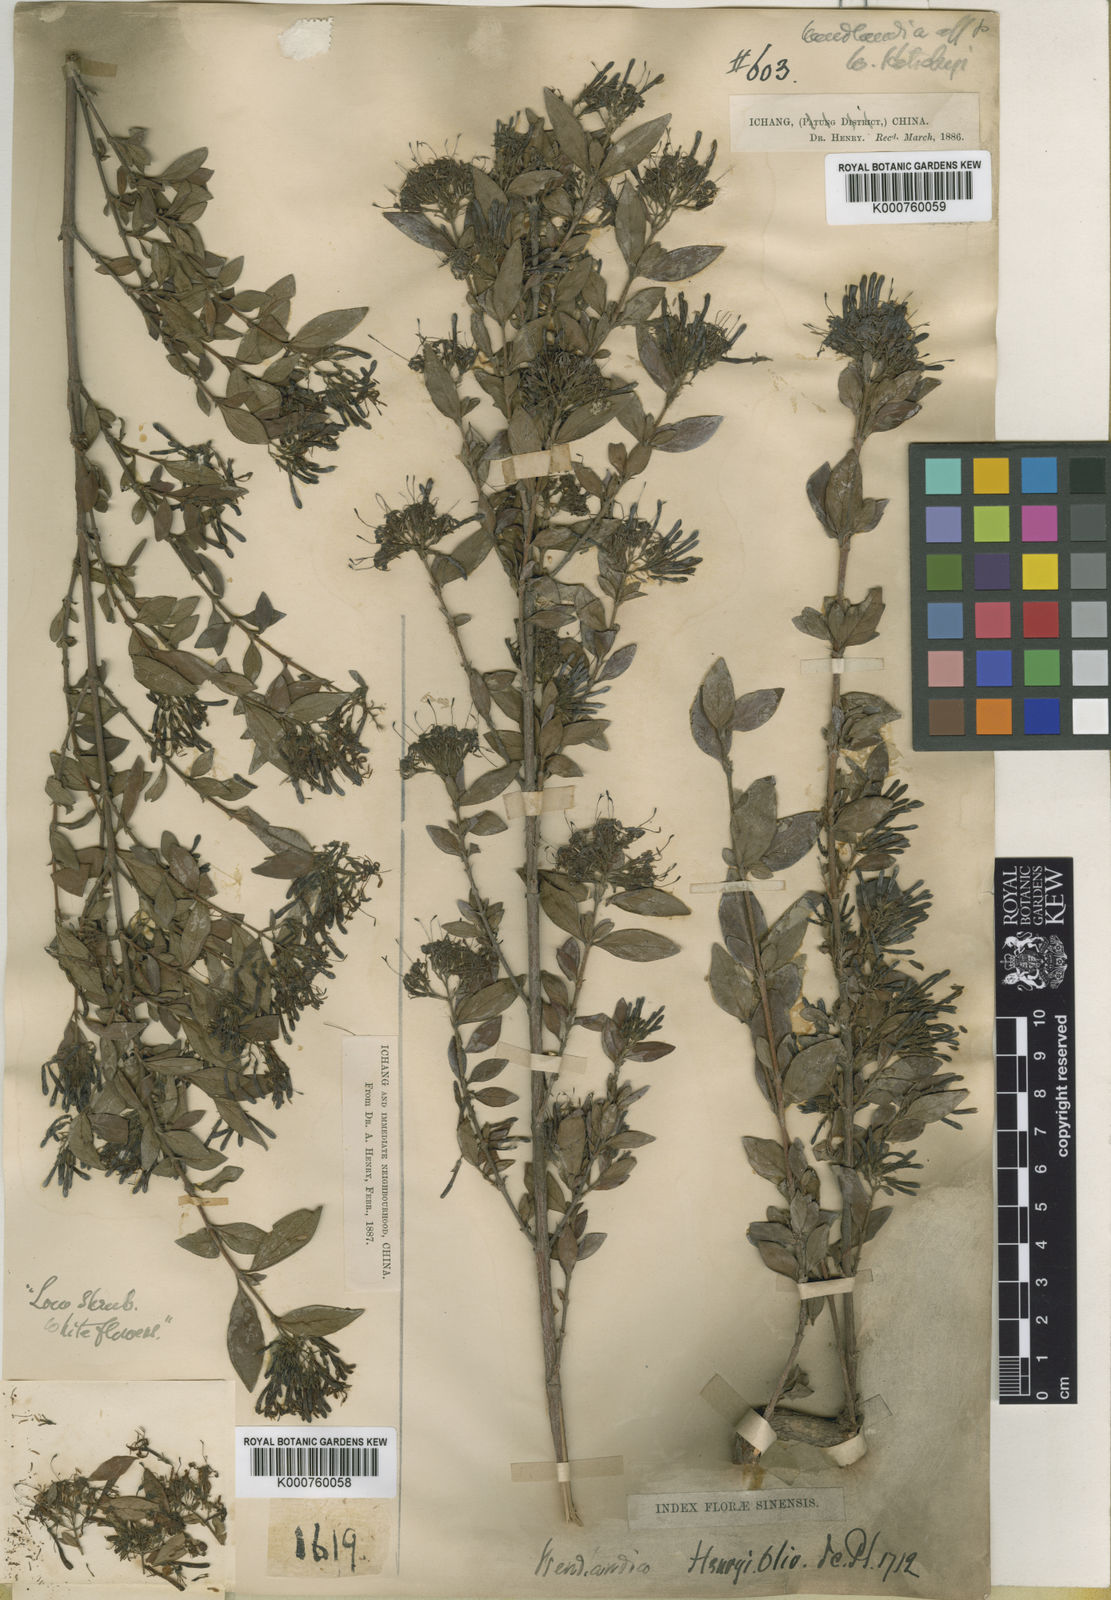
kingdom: Plantae
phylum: Tracheophyta
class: Magnoliopsida
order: Gentianales
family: Rubiaceae
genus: Wendlandia
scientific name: Wendlandia longidens
